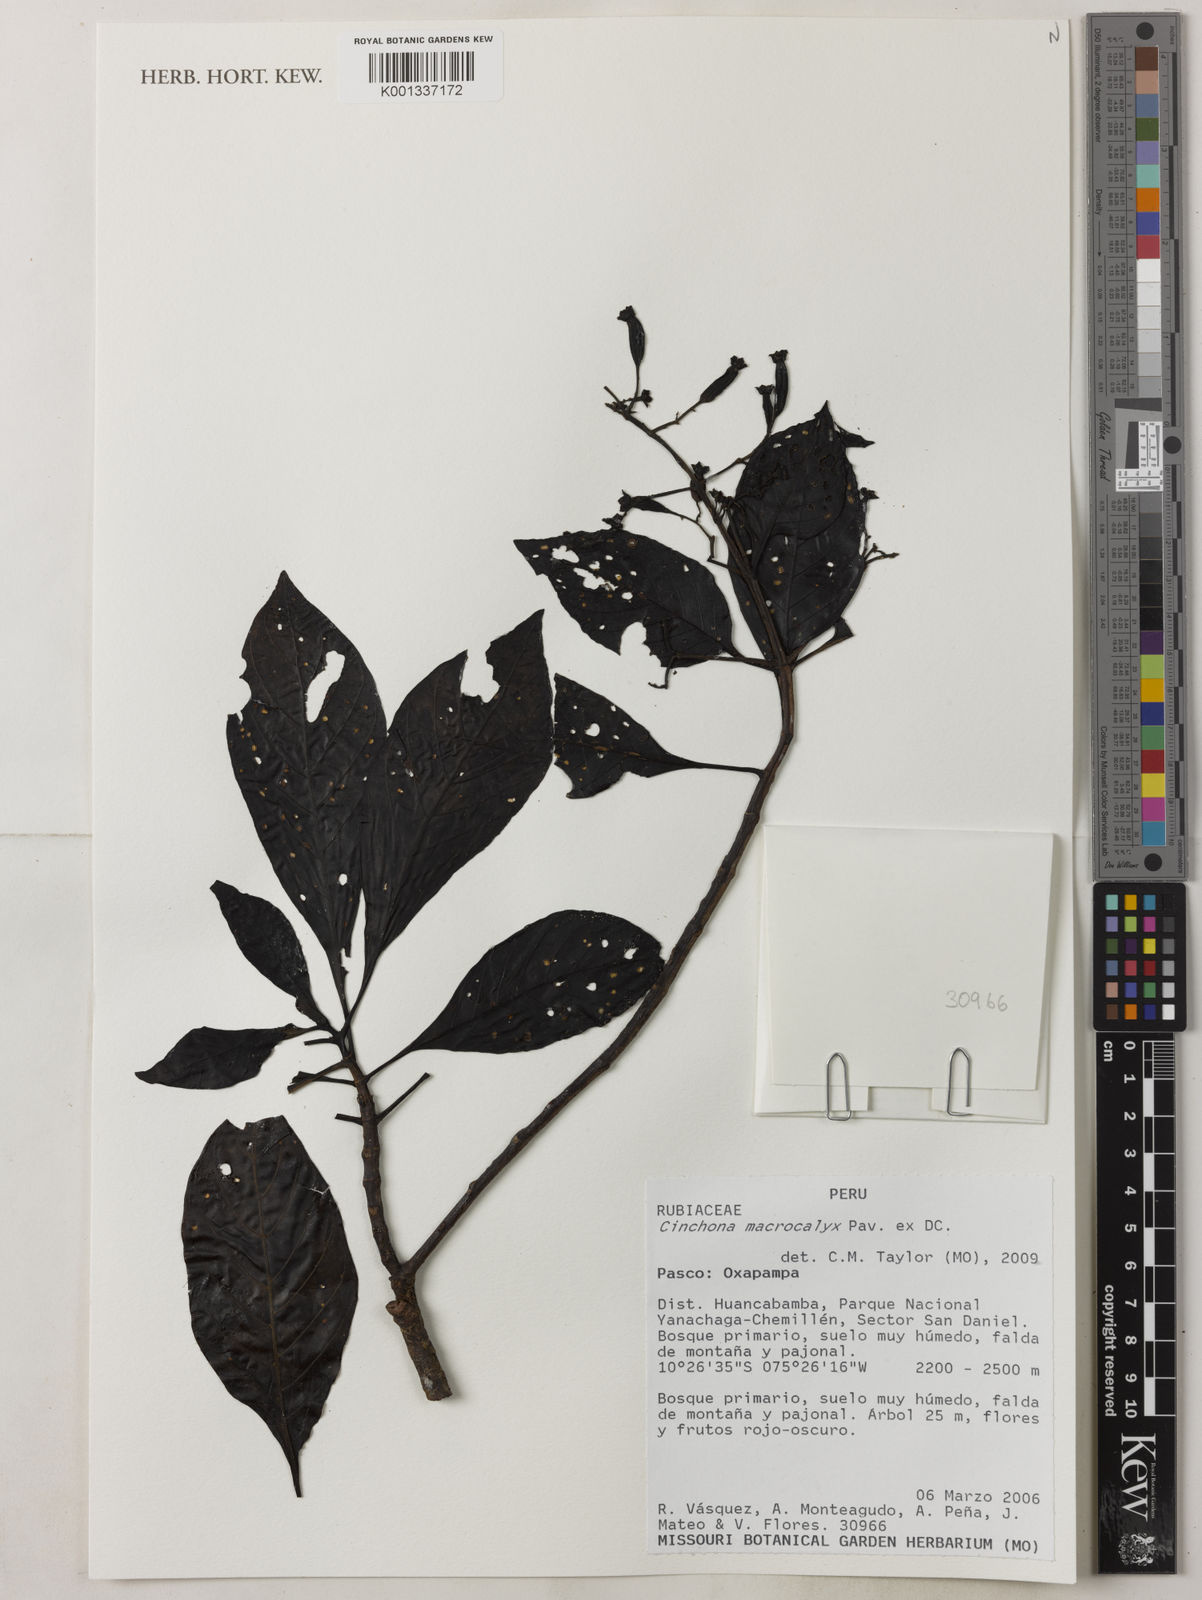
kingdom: Plantae
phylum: Tracheophyta
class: Magnoliopsida
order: Gentianales
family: Rubiaceae
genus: Cinchona
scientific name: Cinchona macrocalyx
